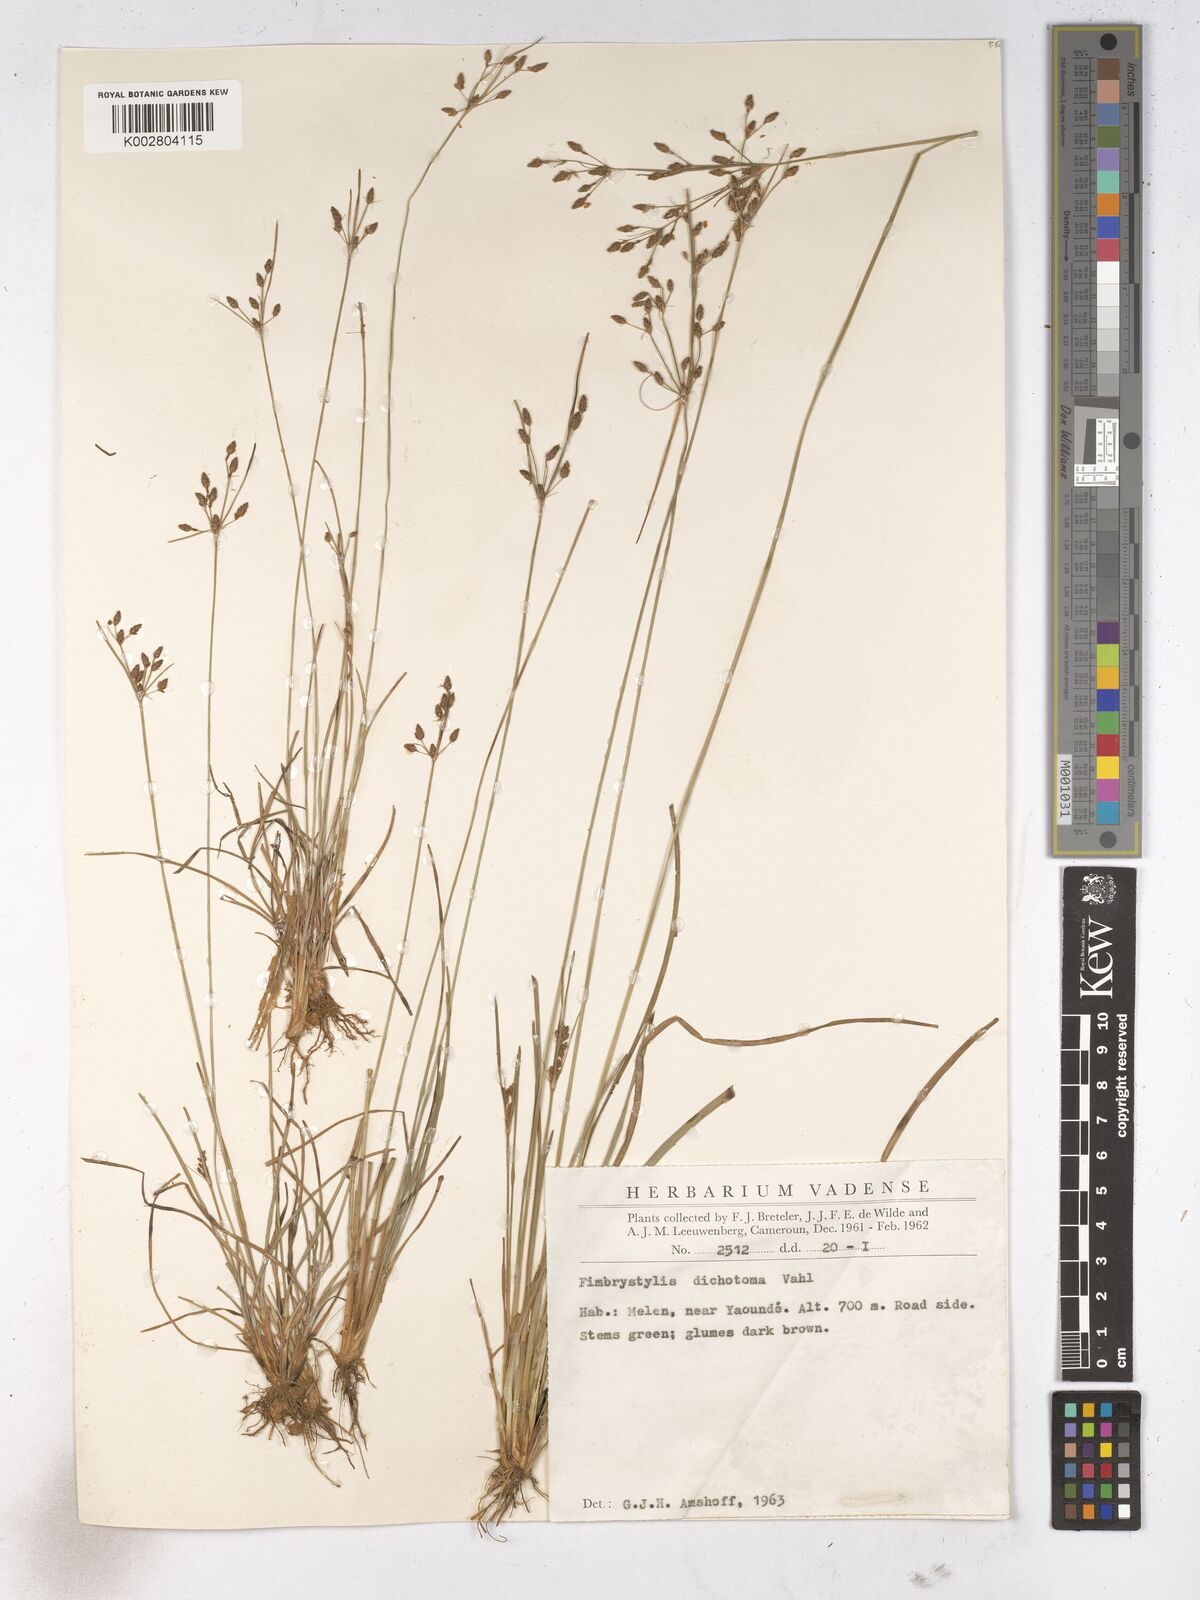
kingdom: Plantae
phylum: Tracheophyta
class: Liliopsida
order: Poales
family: Cyperaceae
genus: Fimbristylis
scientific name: Fimbristylis dichotoma
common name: Forked fimbry
